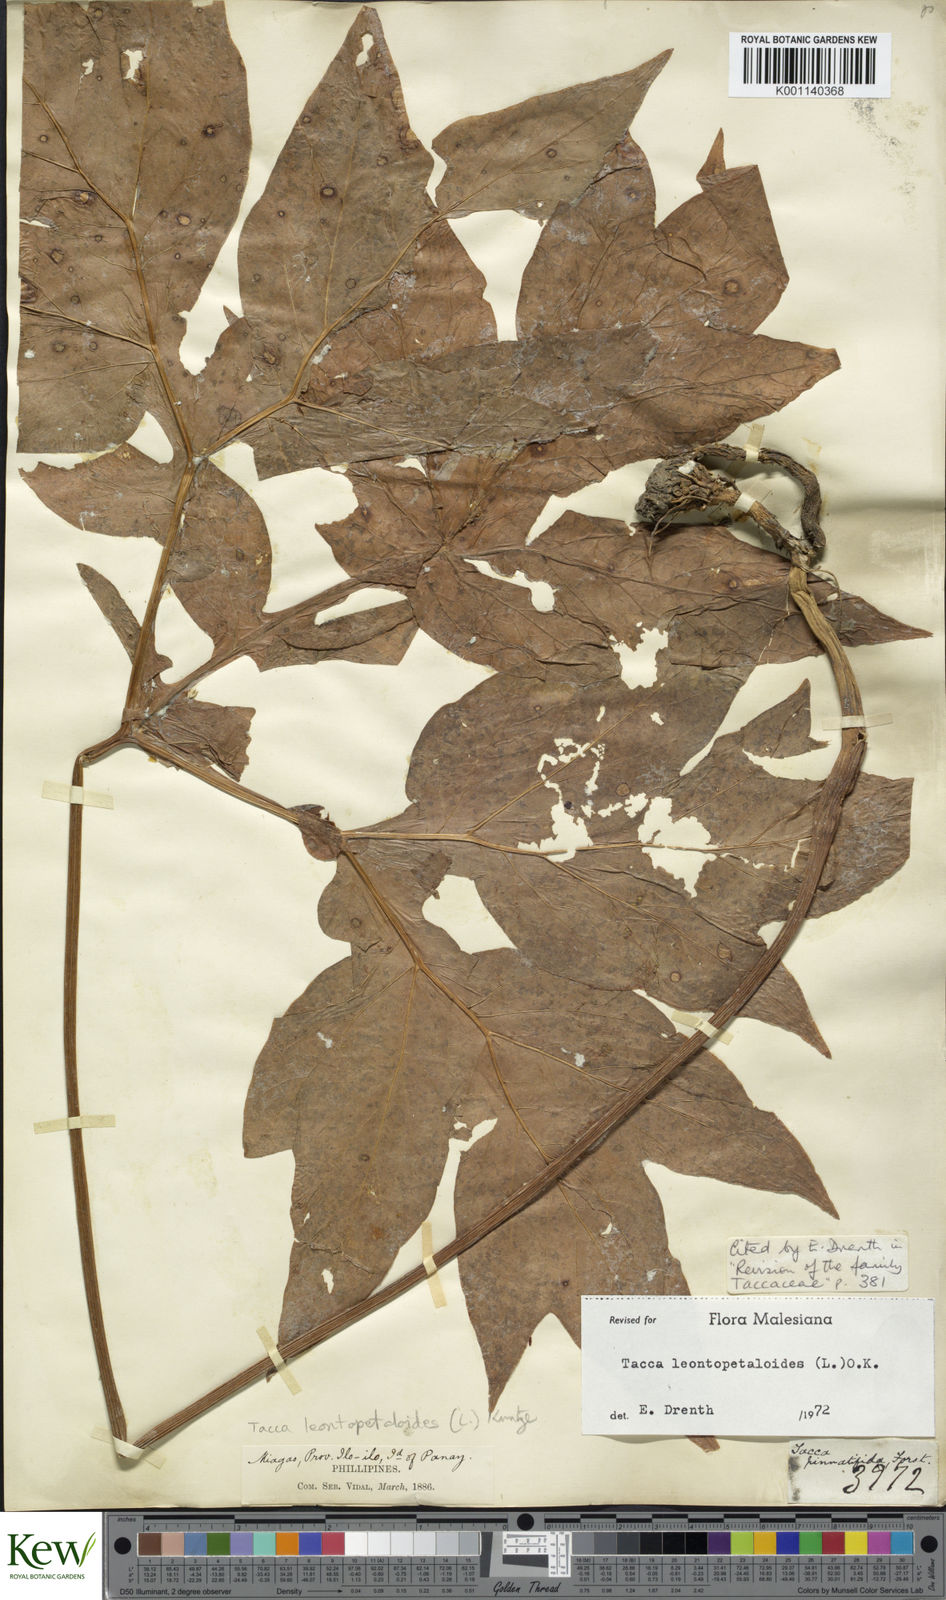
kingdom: Plantae
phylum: Tracheophyta
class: Liliopsida
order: Dioscoreales
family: Dioscoreaceae
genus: Tacca
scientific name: Tacca leontopetaloides
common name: Arrowroot
